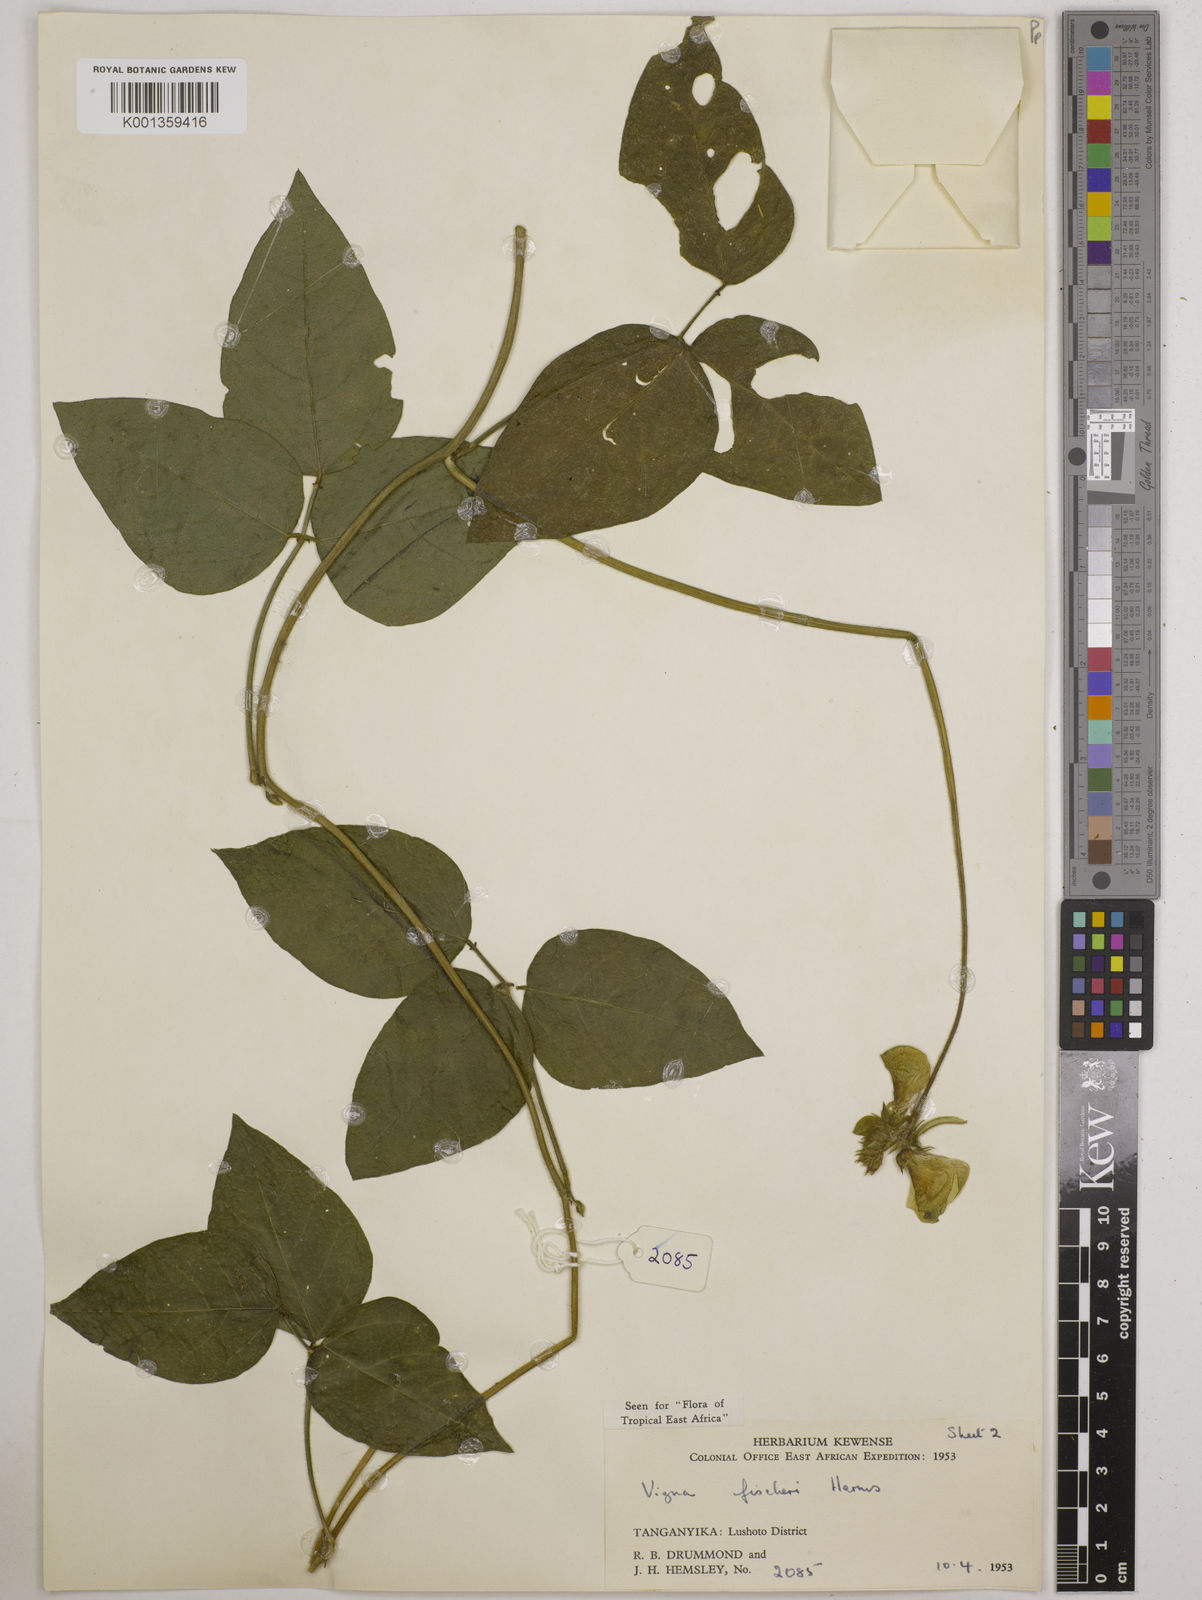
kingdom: Plantae
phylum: Tracheophyta
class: Magnoliopsida
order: Fabales
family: Fabaceae
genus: Vigna
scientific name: Vigna fischeri
